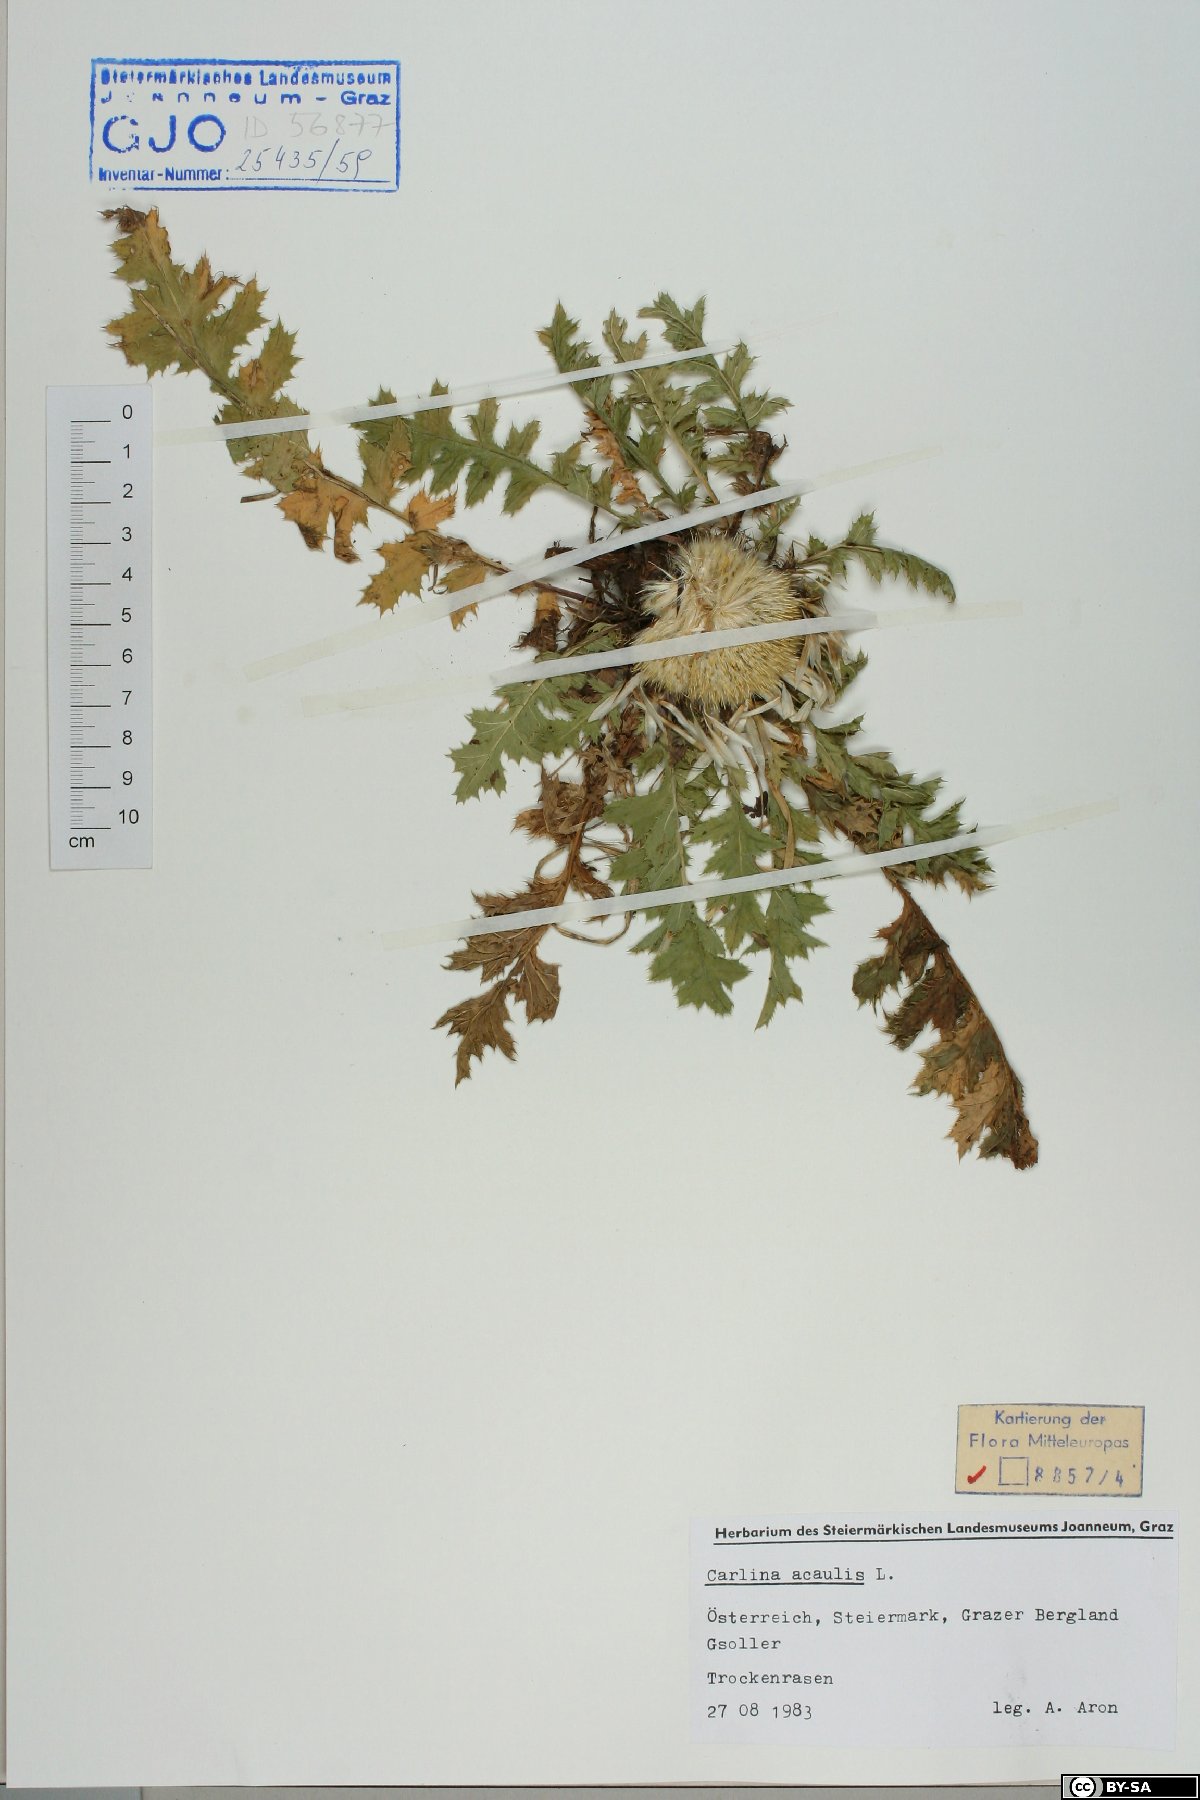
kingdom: Plantae
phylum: Tracheophyta
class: Magnoliopsida
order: Asterales
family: Asteraceae
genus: Carlina
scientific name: Carlina acaulis
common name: Stemless carline thistle
